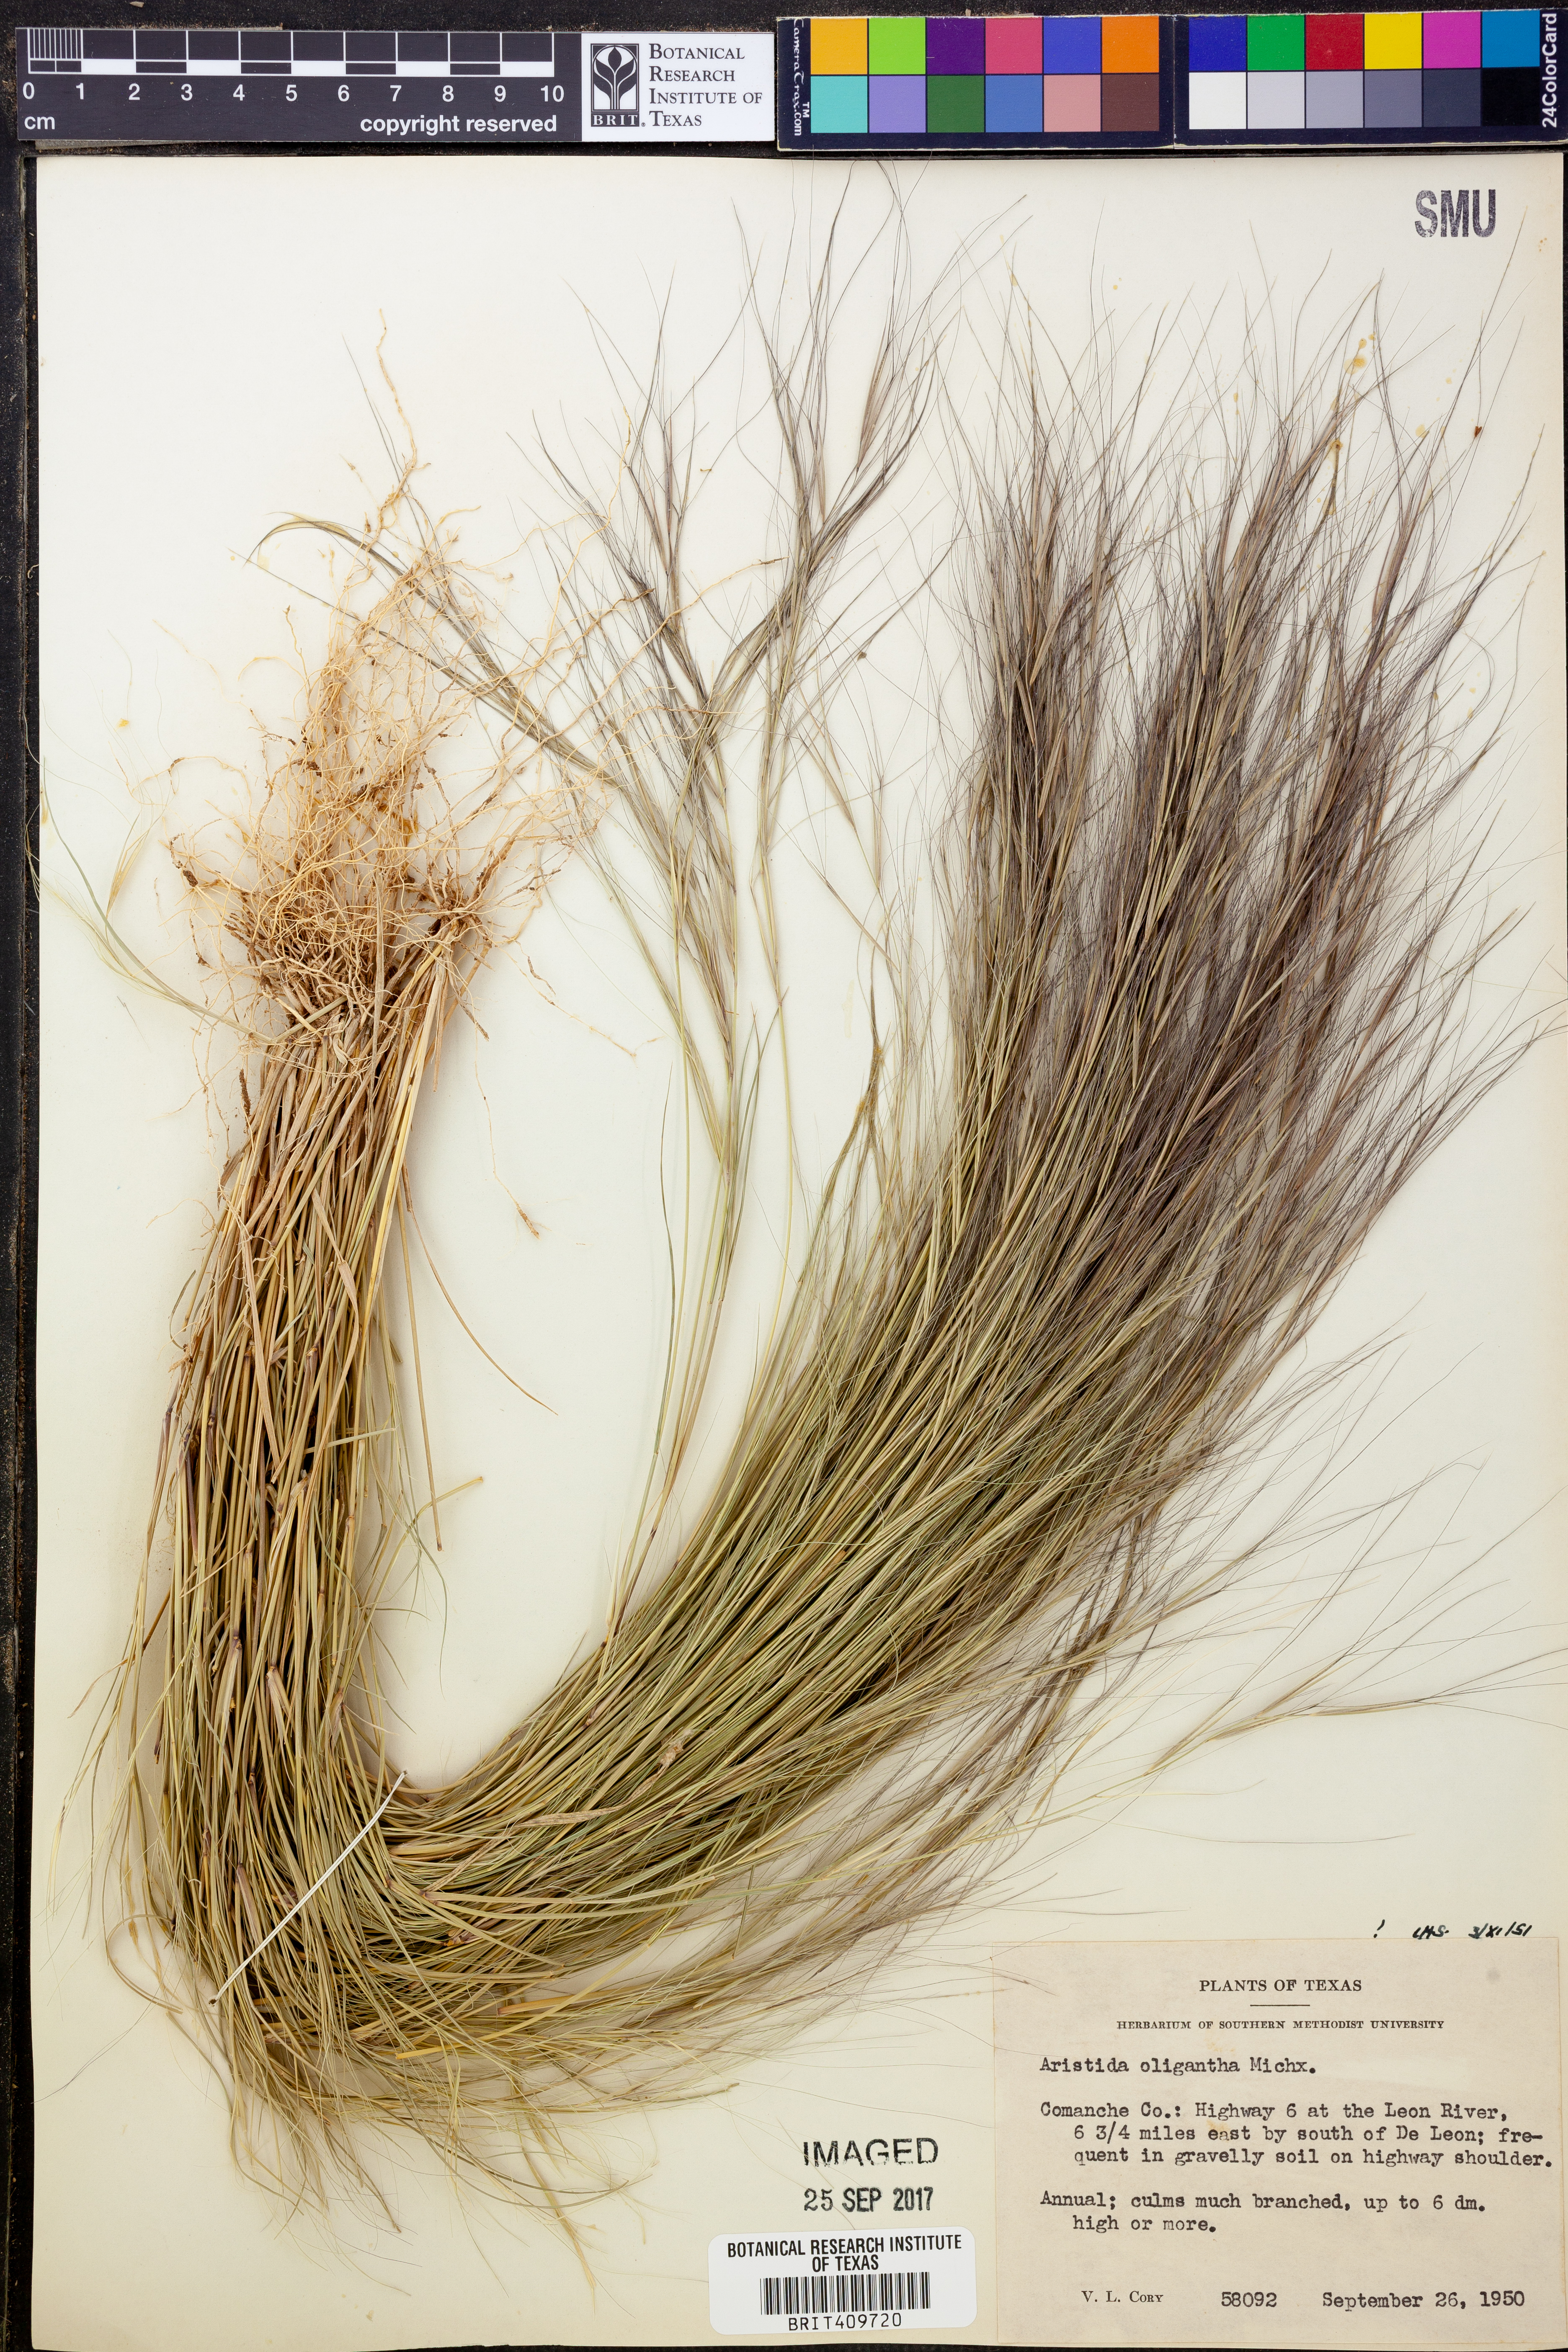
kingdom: Plantae
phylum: Tracheophyta
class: Liliopsida
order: Poales
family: Poaceae
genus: Aristida
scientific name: Aristida oligantha
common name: Few-flowered aristida
